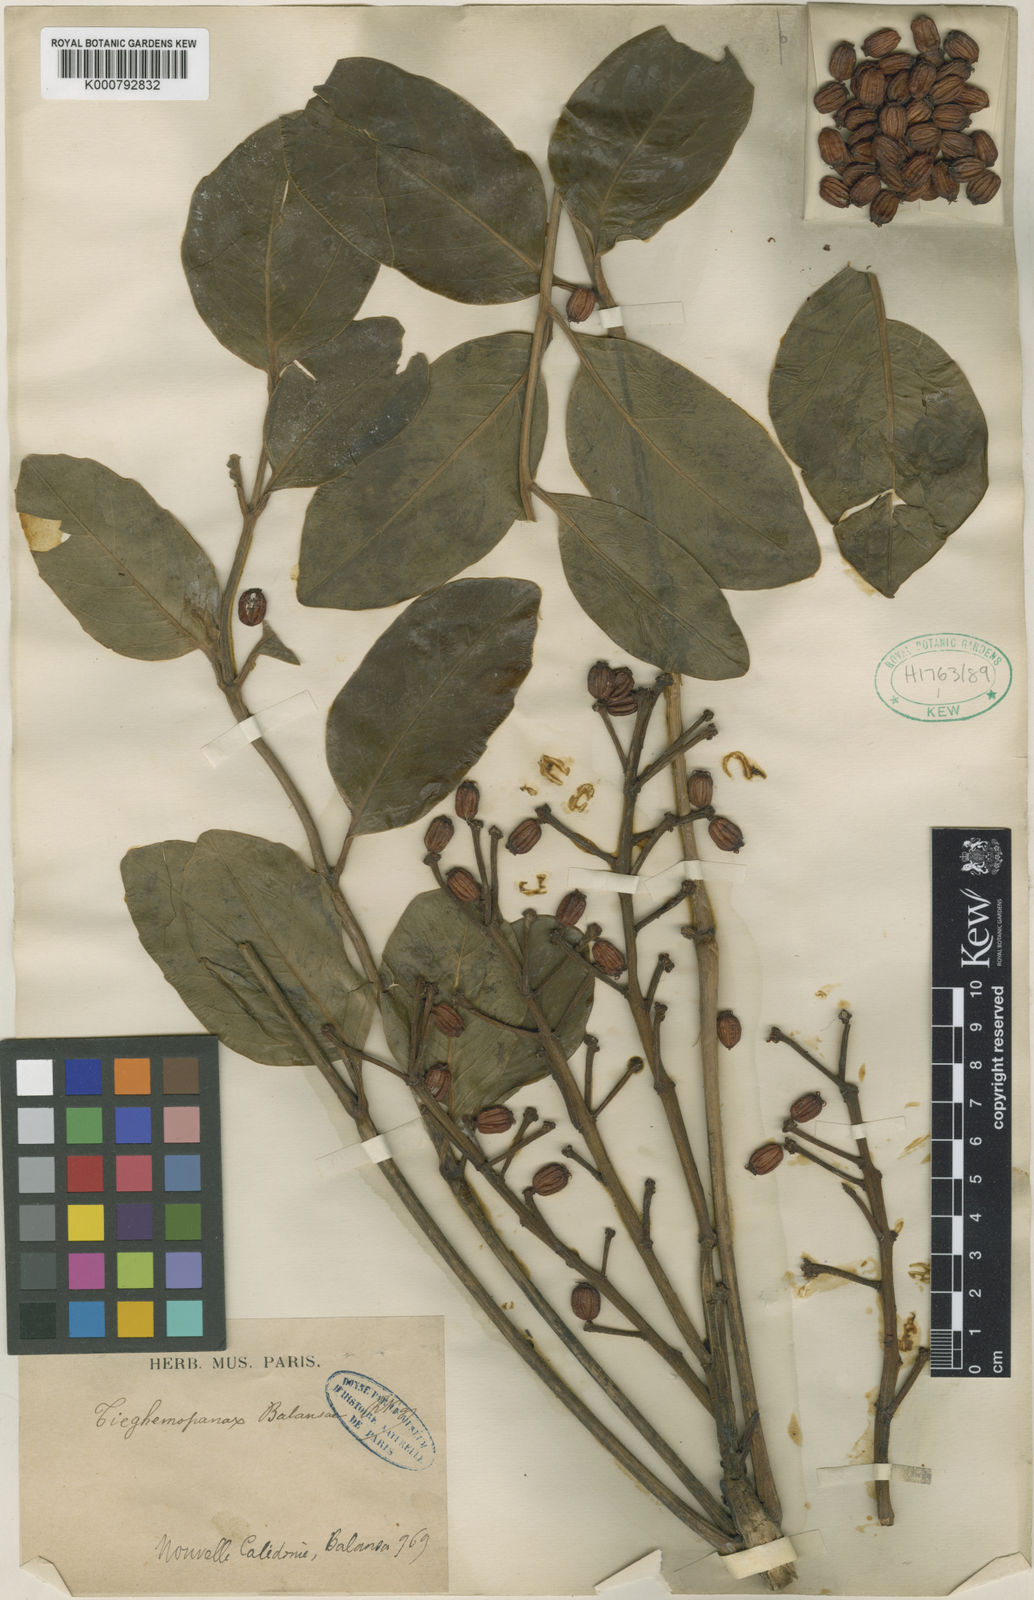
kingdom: Plantae
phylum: Tracheophyta
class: Magnoliopsida
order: Apiales
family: Araliaceae
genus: Polyscias
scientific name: Polyscias balansae
